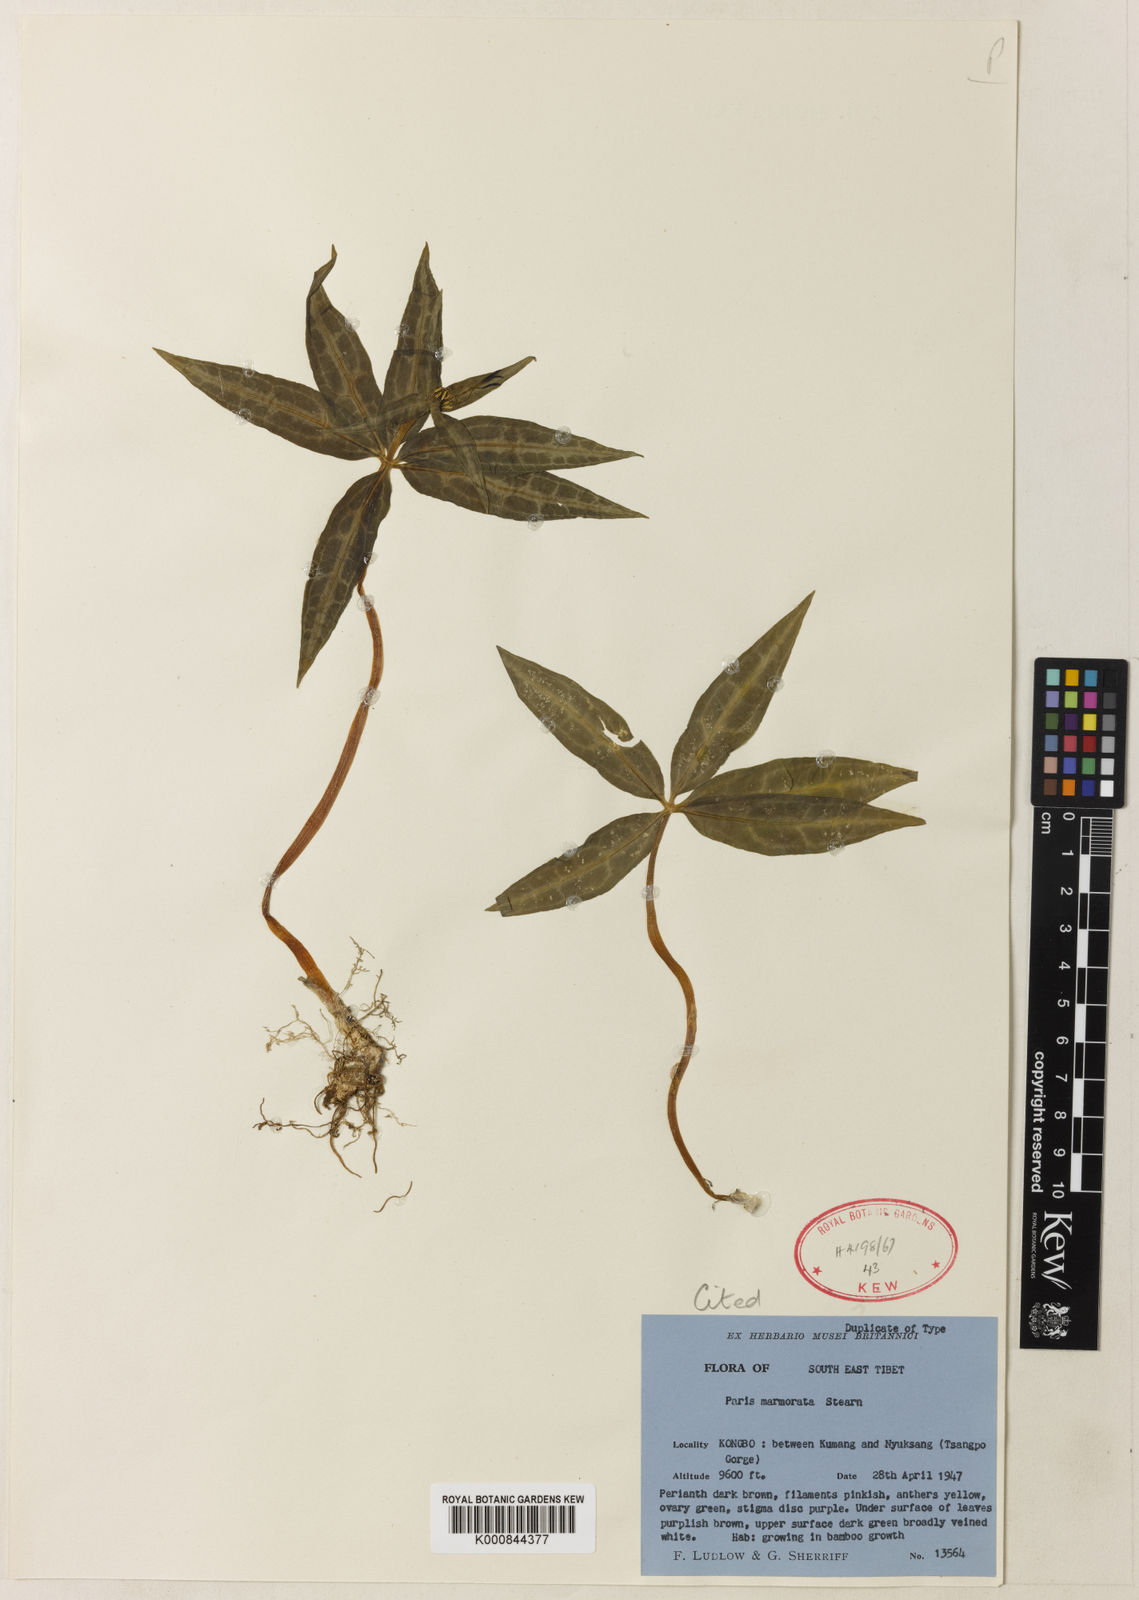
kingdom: Plantae
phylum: Tracheophyta
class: Liliopsida
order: Liliales
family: Melanthiaceae
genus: Paris
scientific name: Paris
